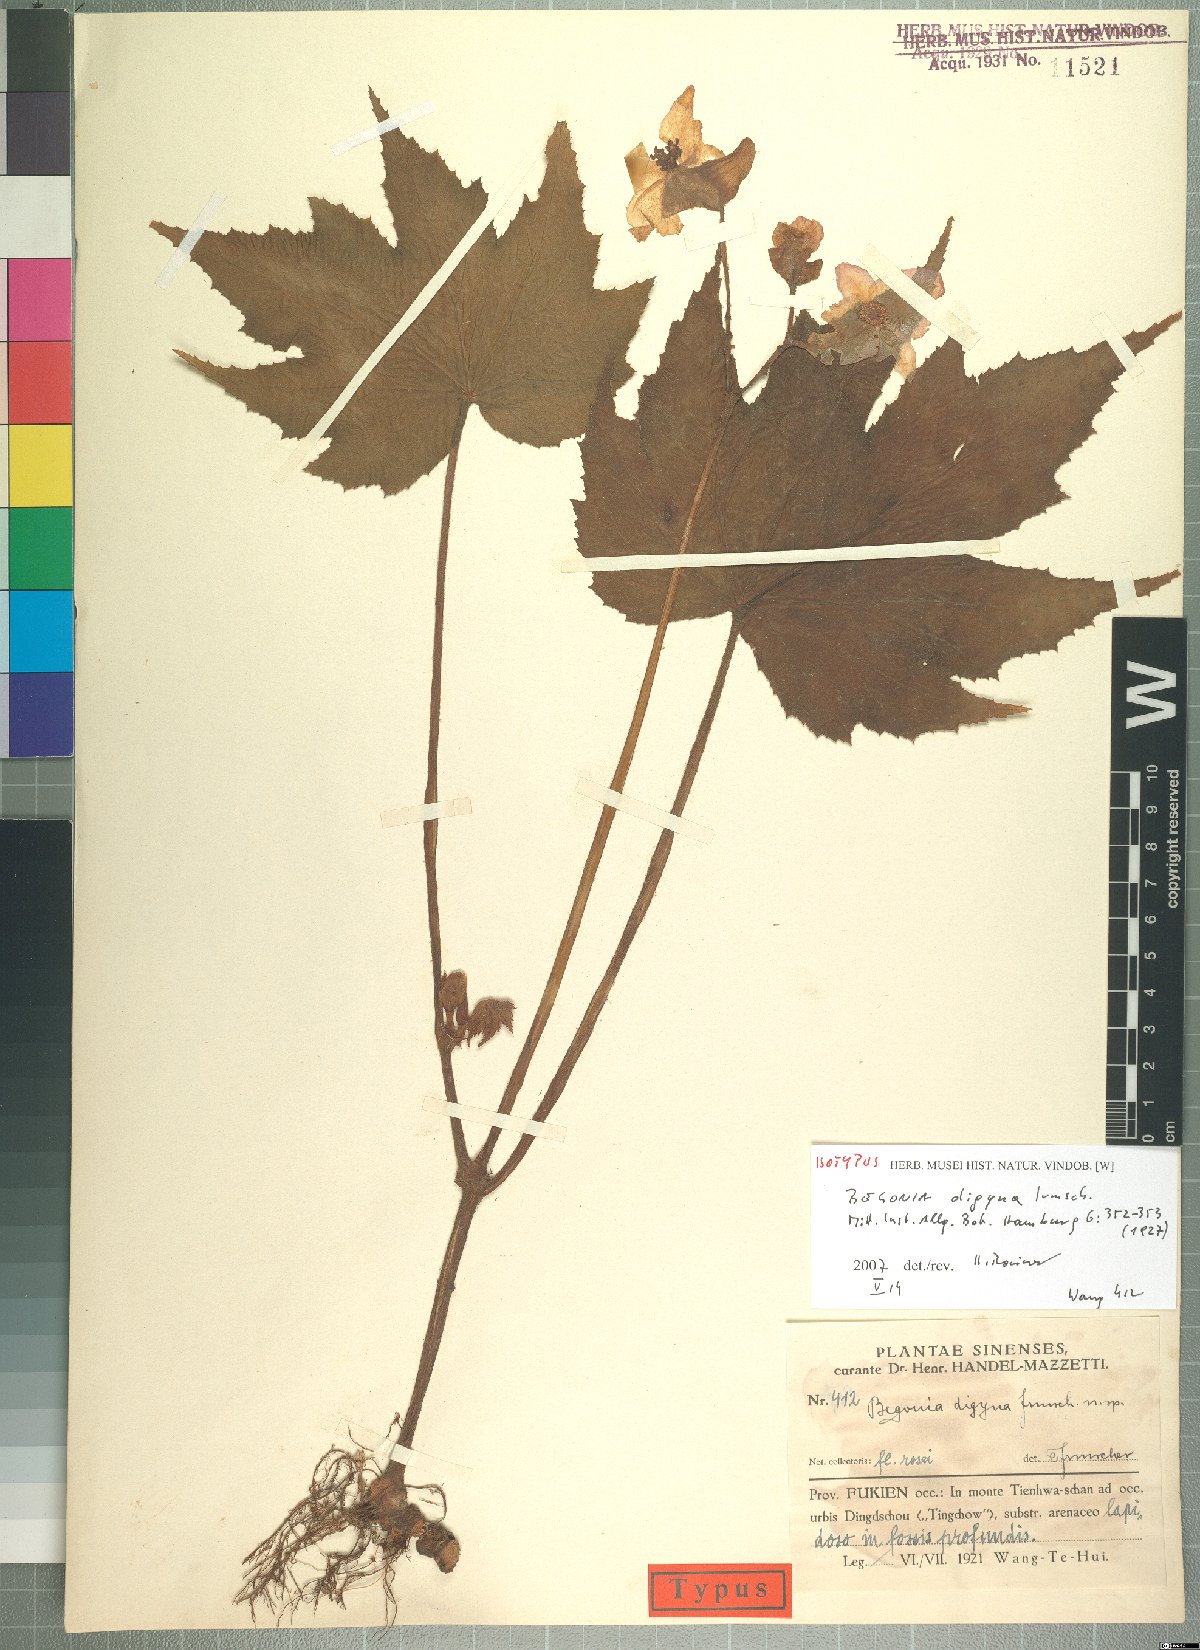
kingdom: Plantae
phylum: Tracheophyta
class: Magnoliopsida
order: Cucurbitales
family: Begoniaceae
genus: Begonia
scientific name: Begonia digyna
